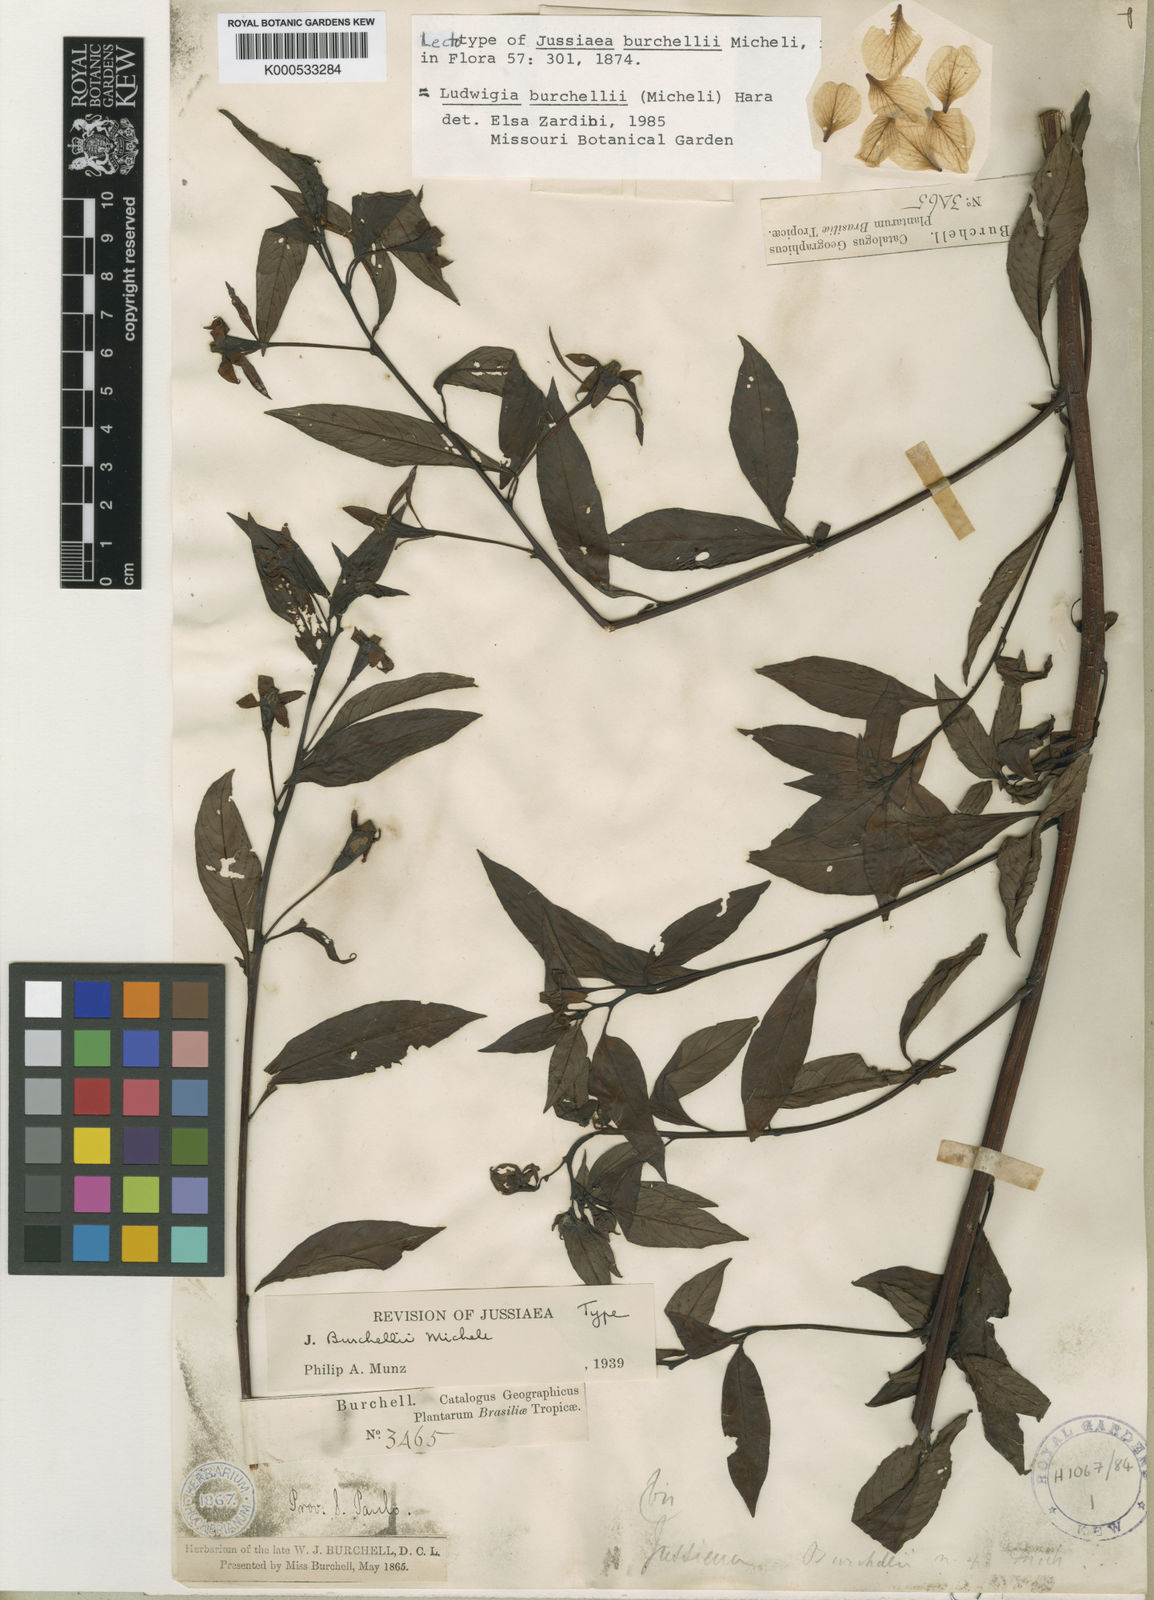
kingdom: Plantae
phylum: Tracheophyta
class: Magnoliopsida
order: Myrtales
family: Onagraceae
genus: Ludwigia
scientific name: Ludwigia burchellii
